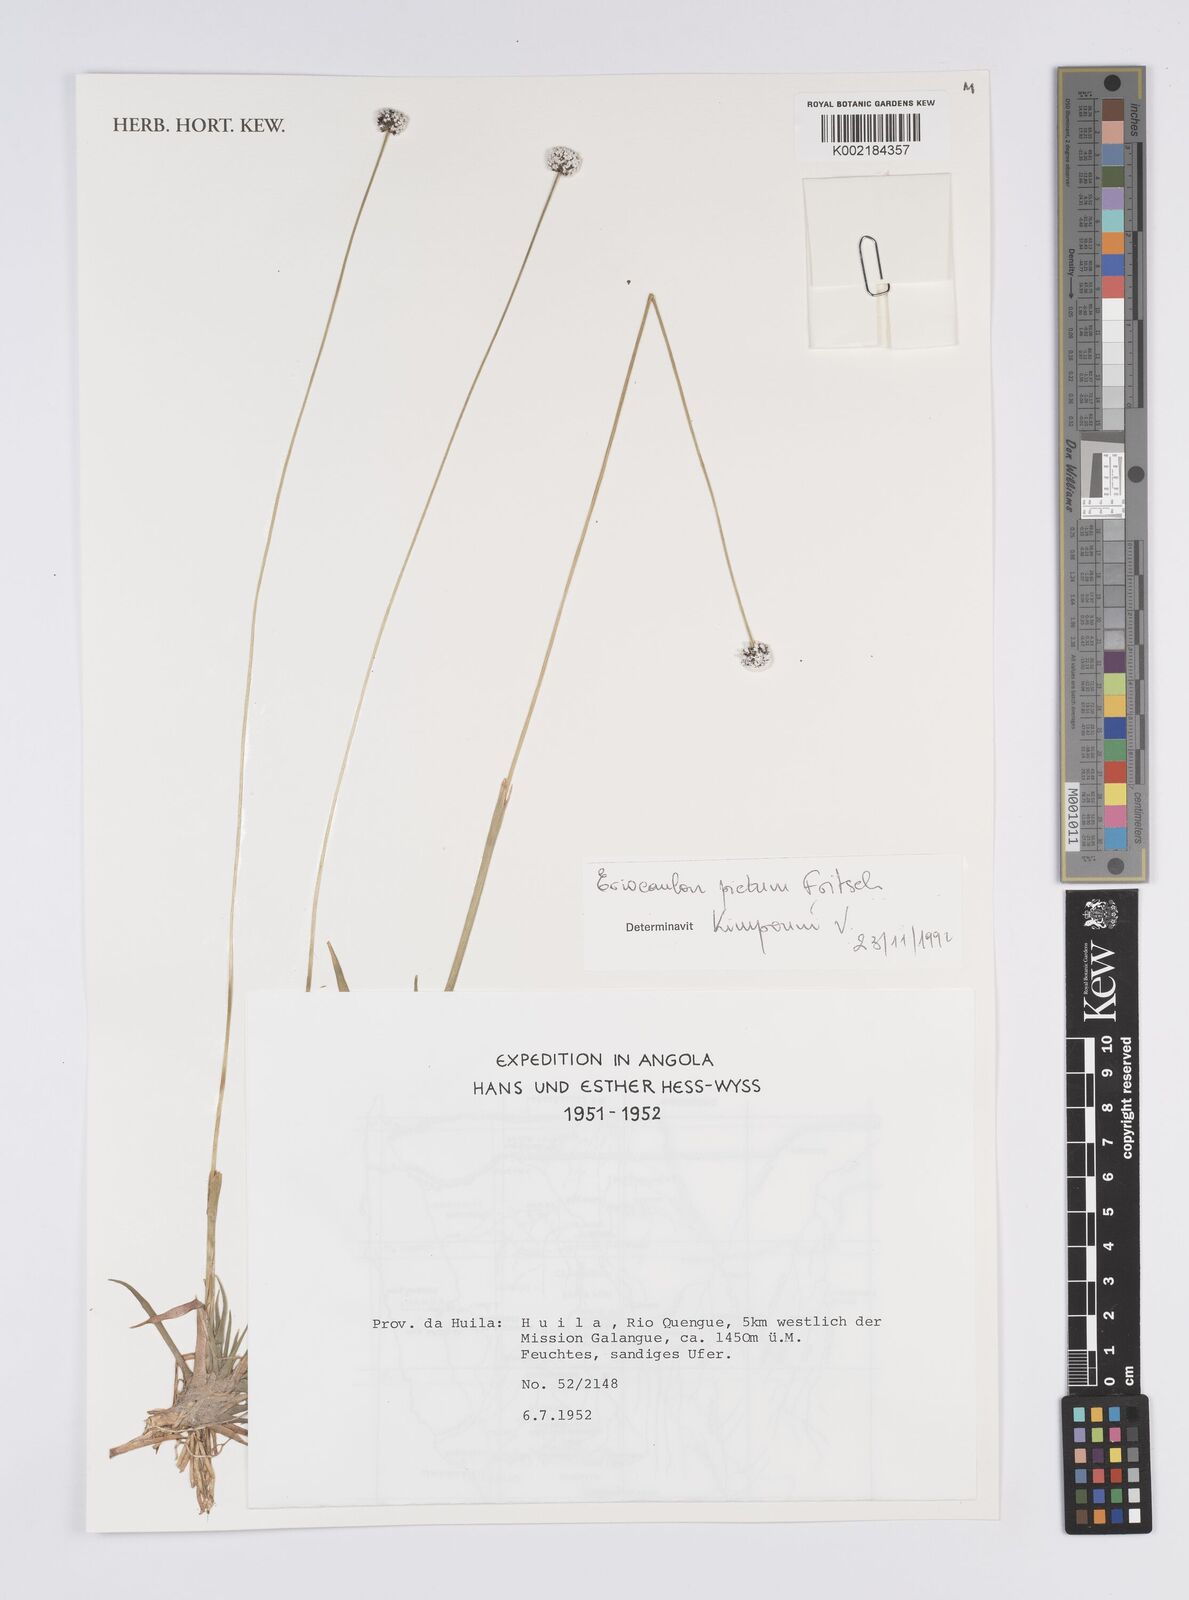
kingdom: Plantae
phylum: Tracheophyta
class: Liliopsida
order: Poales
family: Eriocaulaceae
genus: Eriocaulon
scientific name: Eriocaulon pictum
